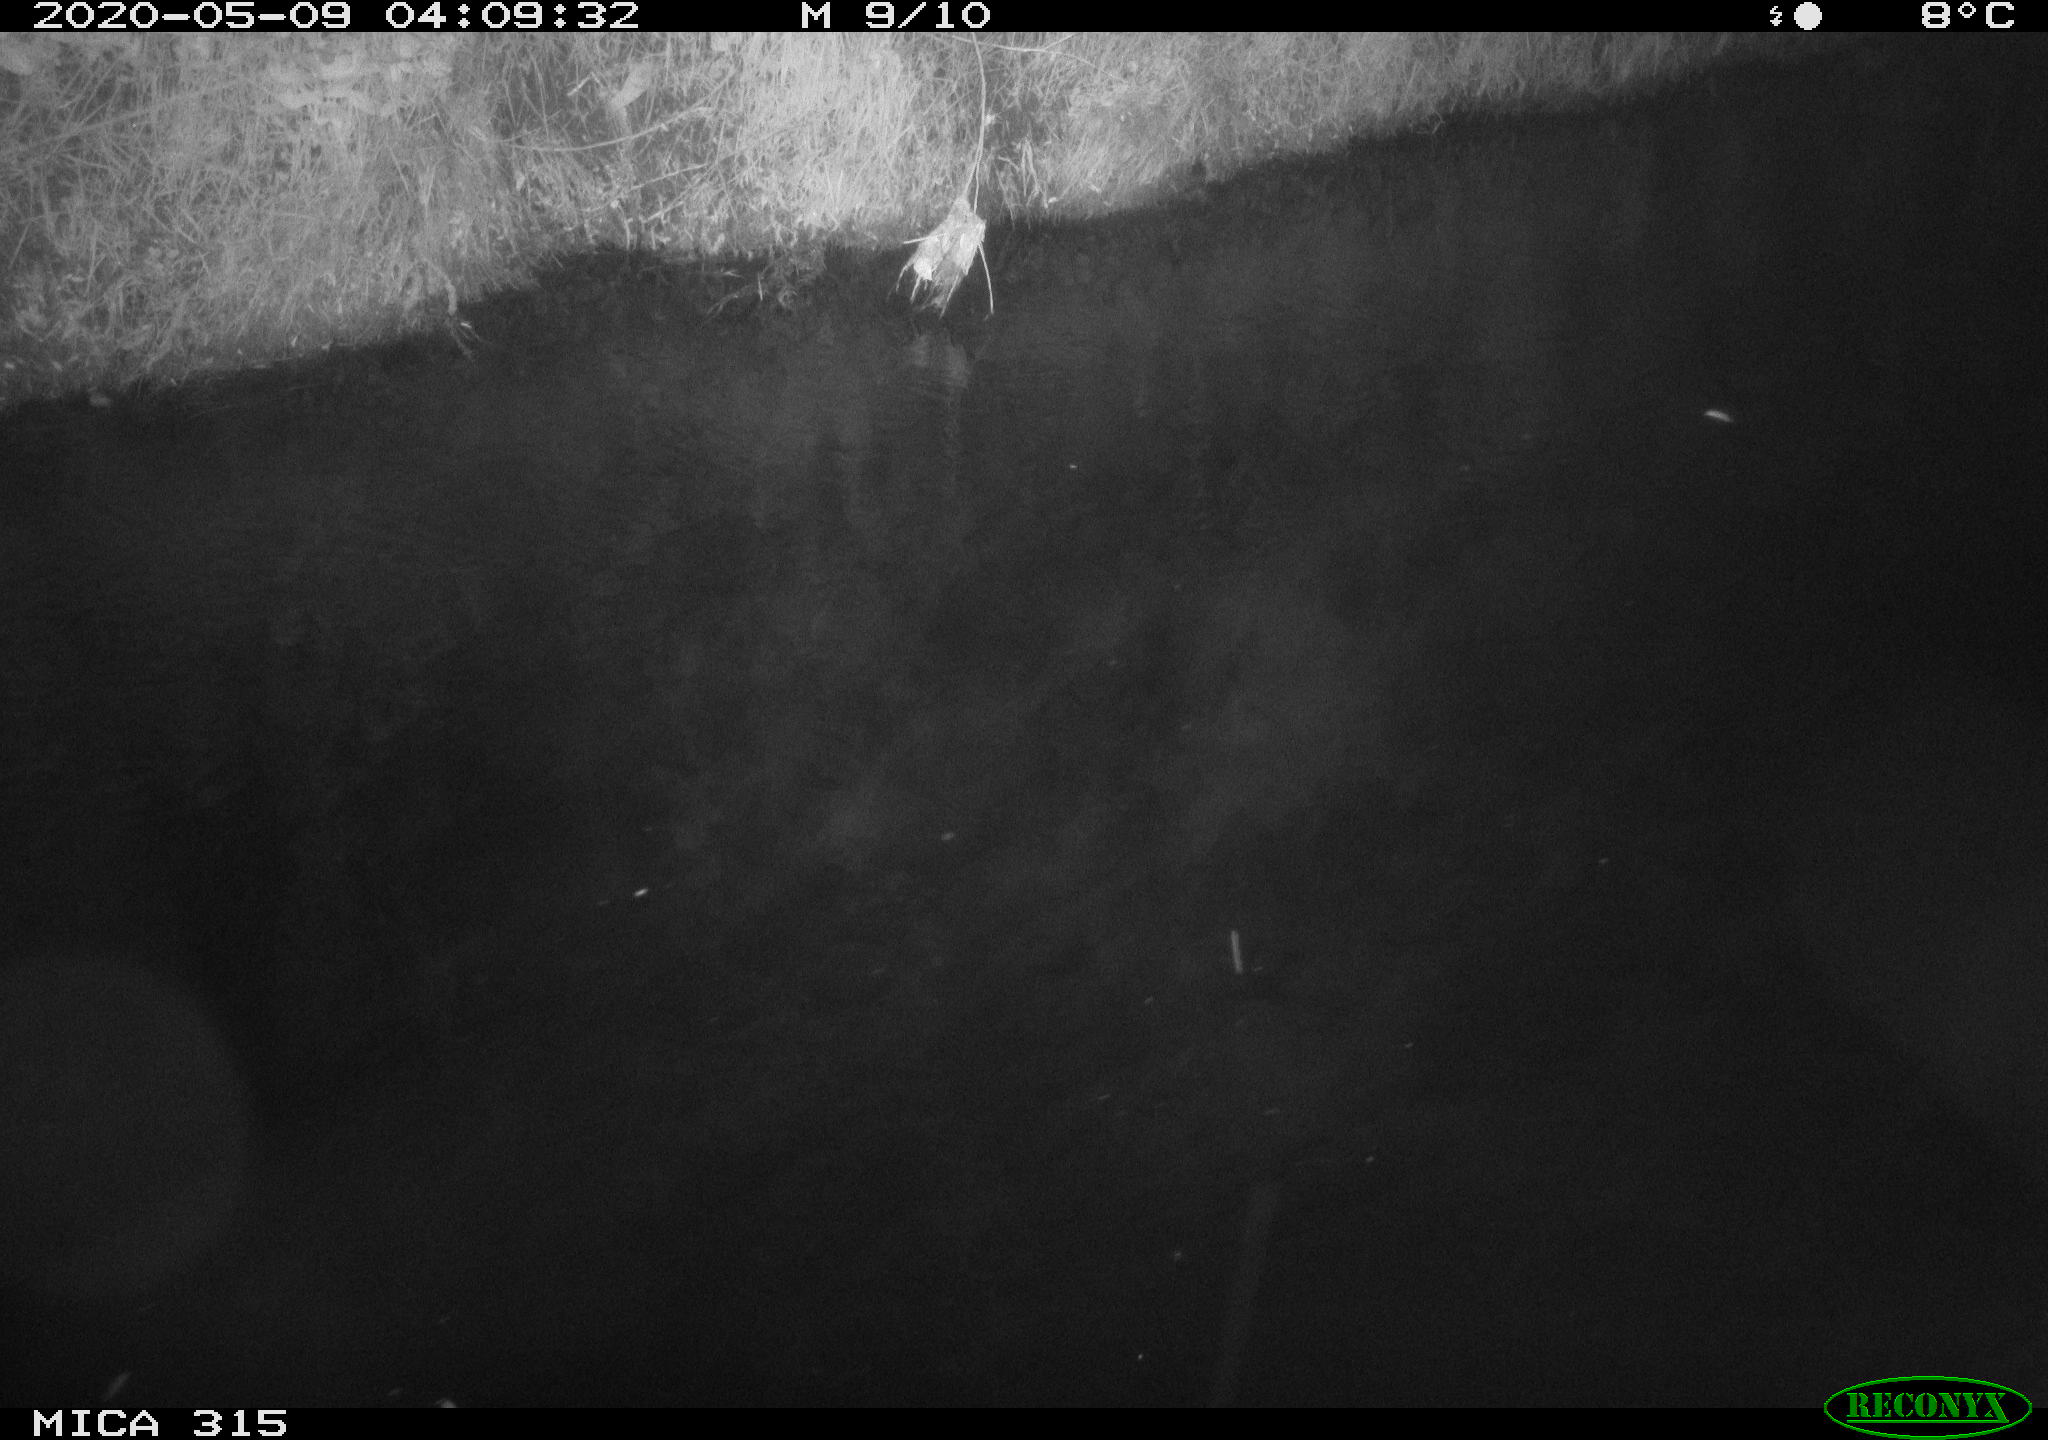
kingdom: Animalia
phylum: Chordata
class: Aves
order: Anseriformes
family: Anatidae
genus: Anas
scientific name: Anas platyrhynchos
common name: Mallard
